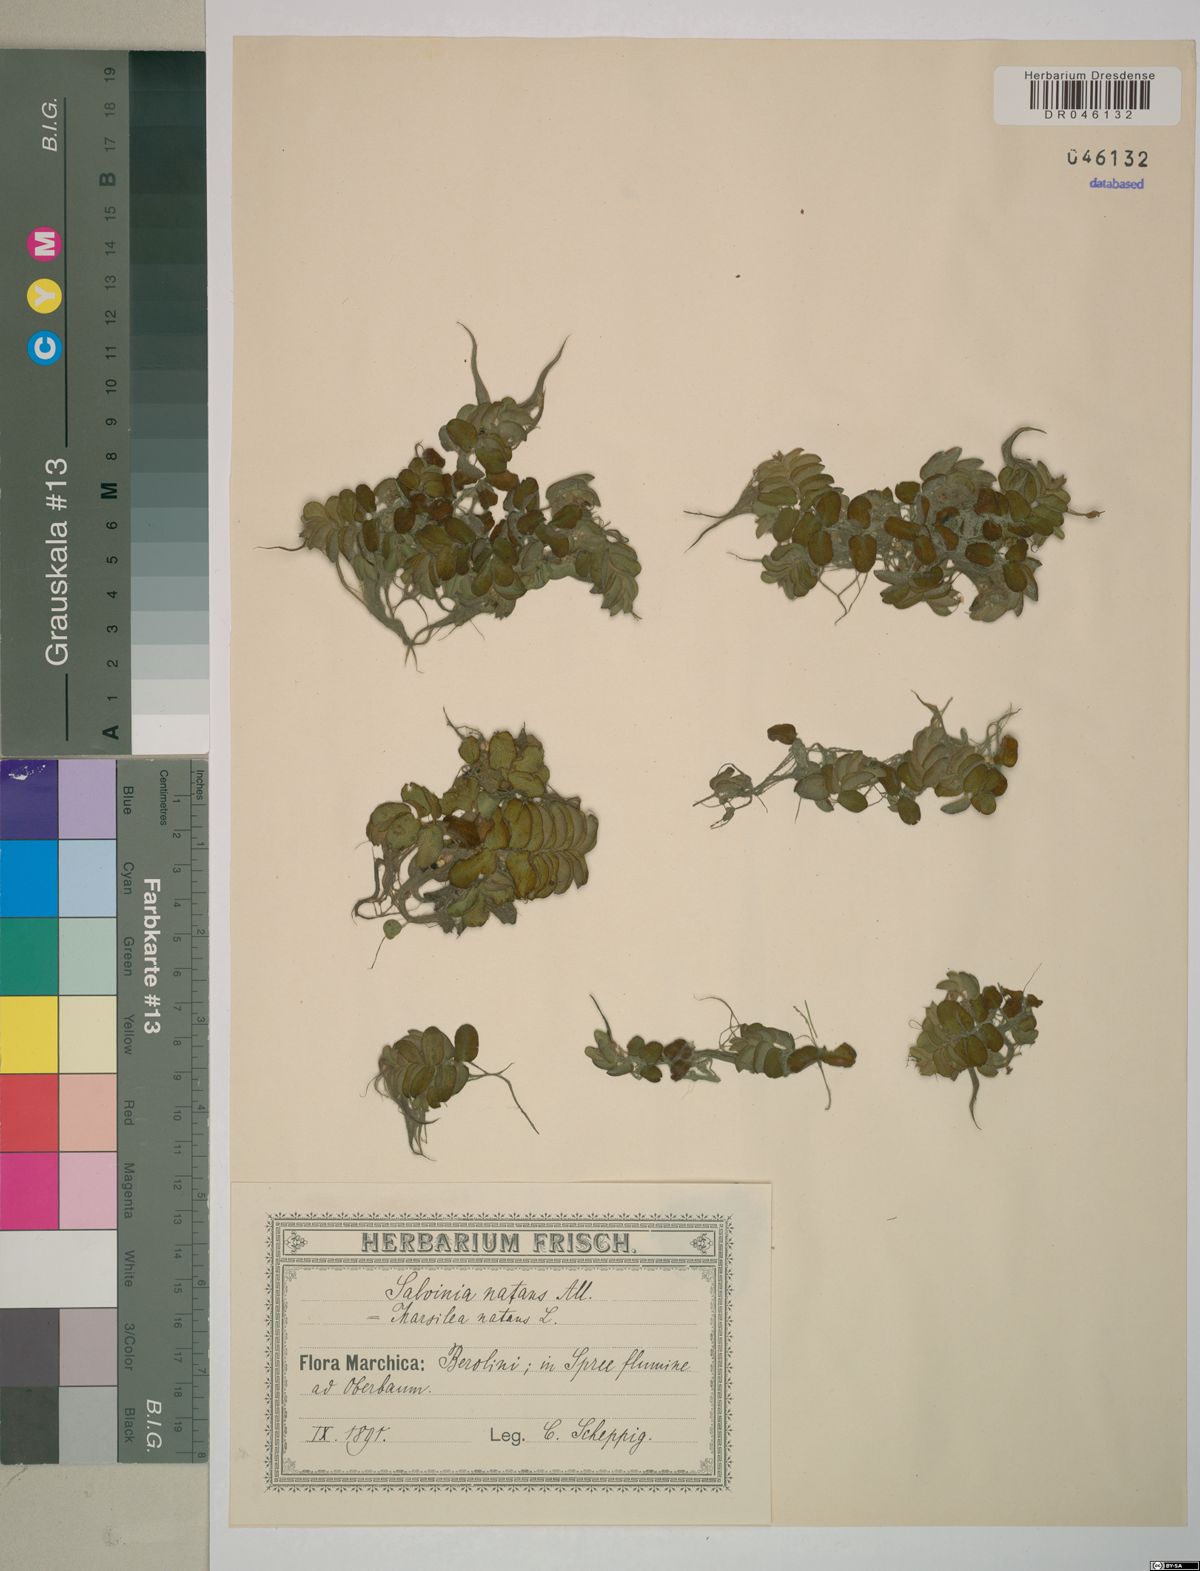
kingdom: Plantae
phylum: Tracheophyta
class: Polypodiopsida
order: Salviniales
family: Salviniaceae
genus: Salvinia
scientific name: Salvinia natans
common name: Floating fern
